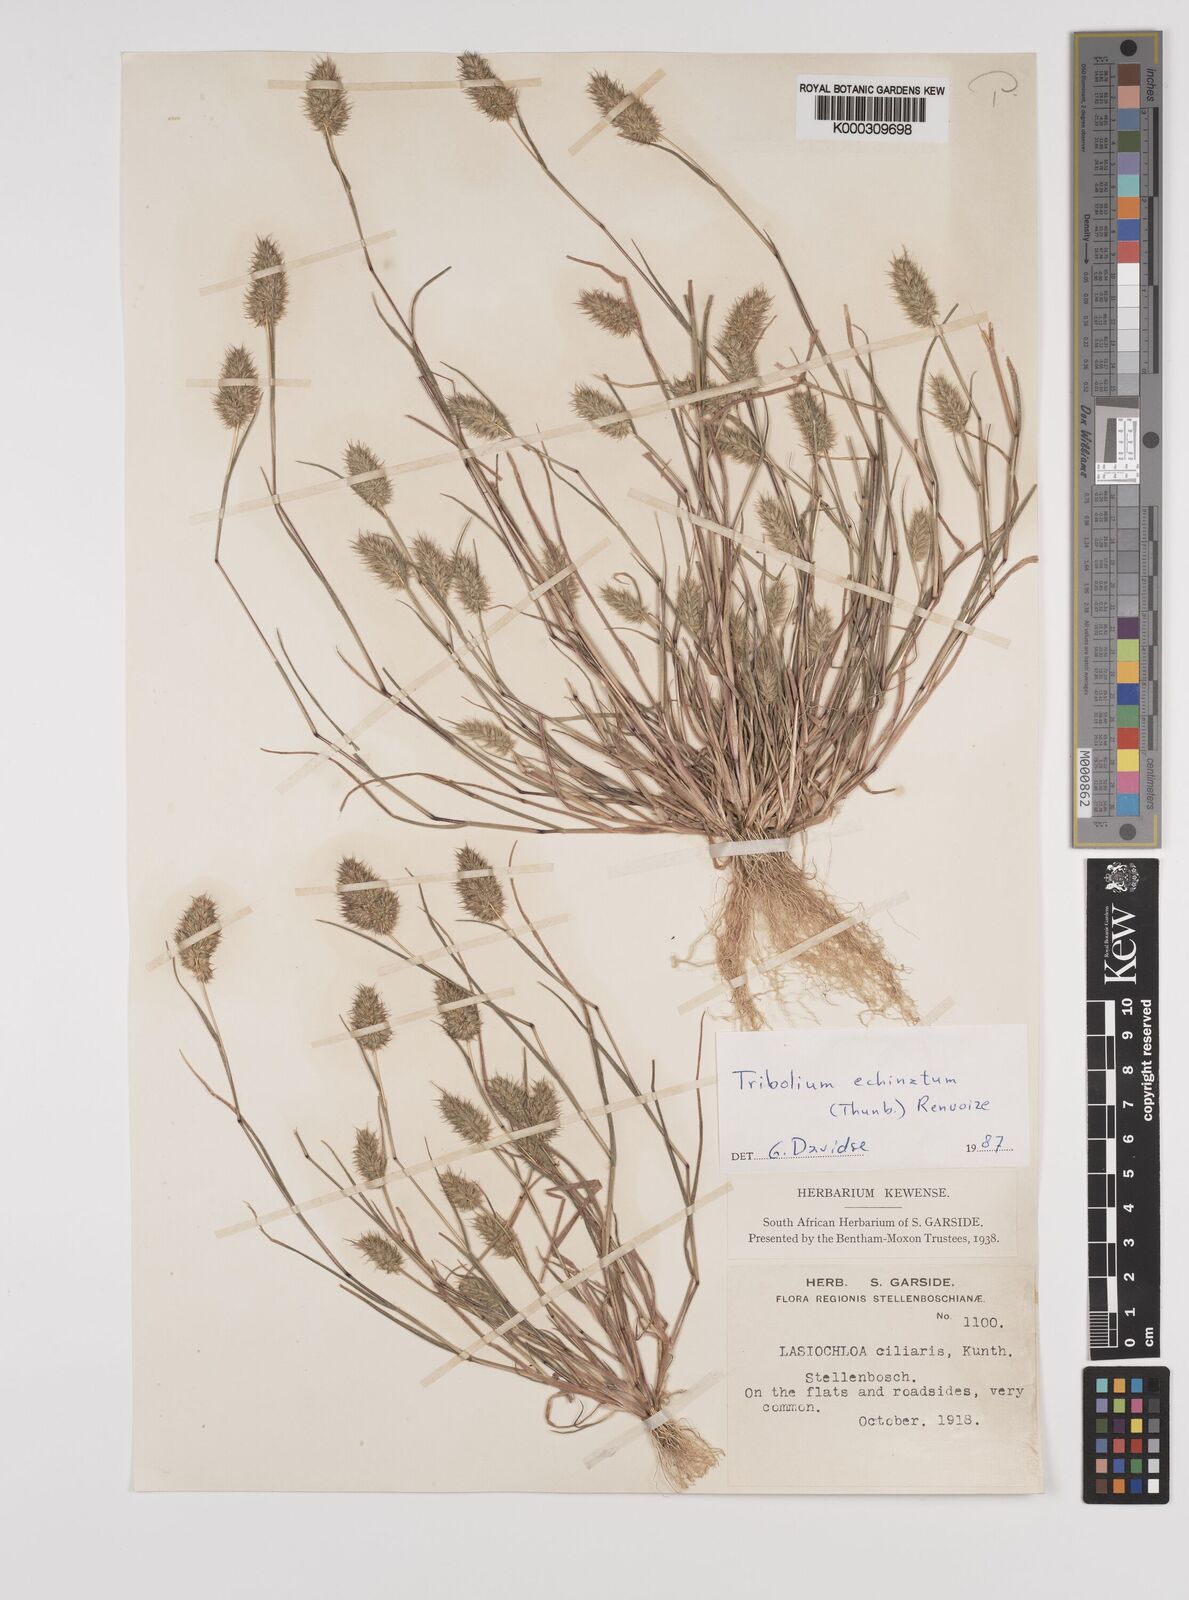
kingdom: Plantae
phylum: Tracheophyta
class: Liliopsida
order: Poales
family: Poaceae
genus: Tribolium
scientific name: Tribolium echinatum
